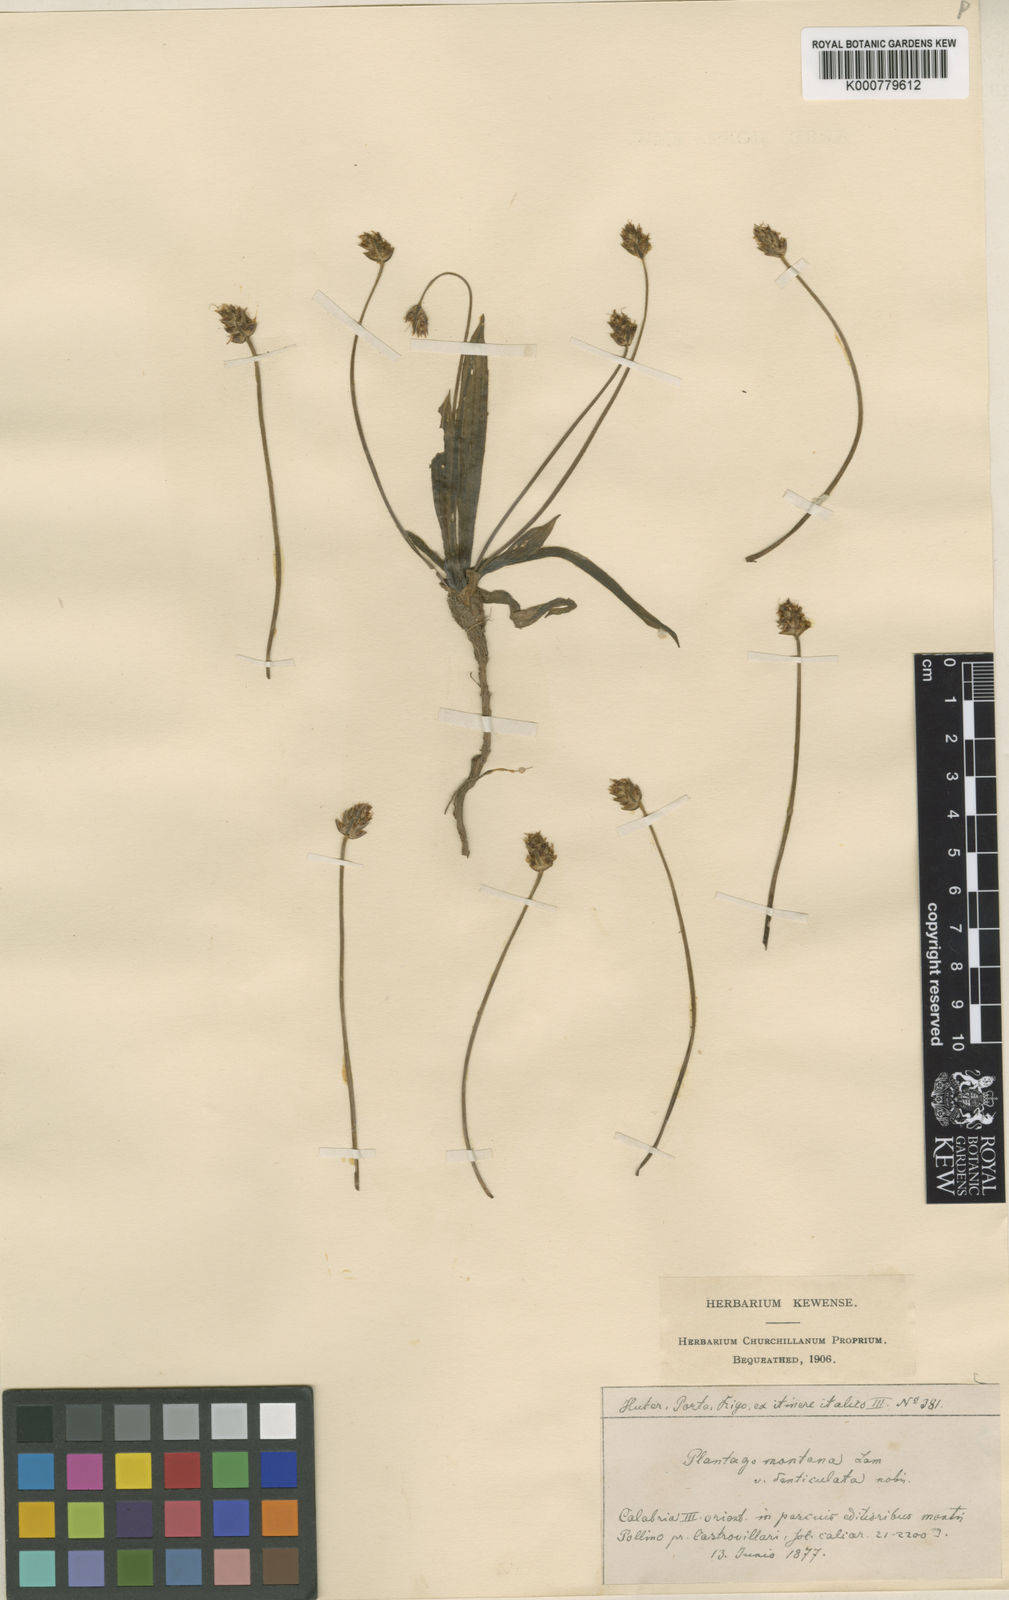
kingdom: Plantae
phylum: Tracheophyta
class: Magnoliopsida
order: Lamiales
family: Plantaginaceae
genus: Plantago
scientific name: Plantago atrata
